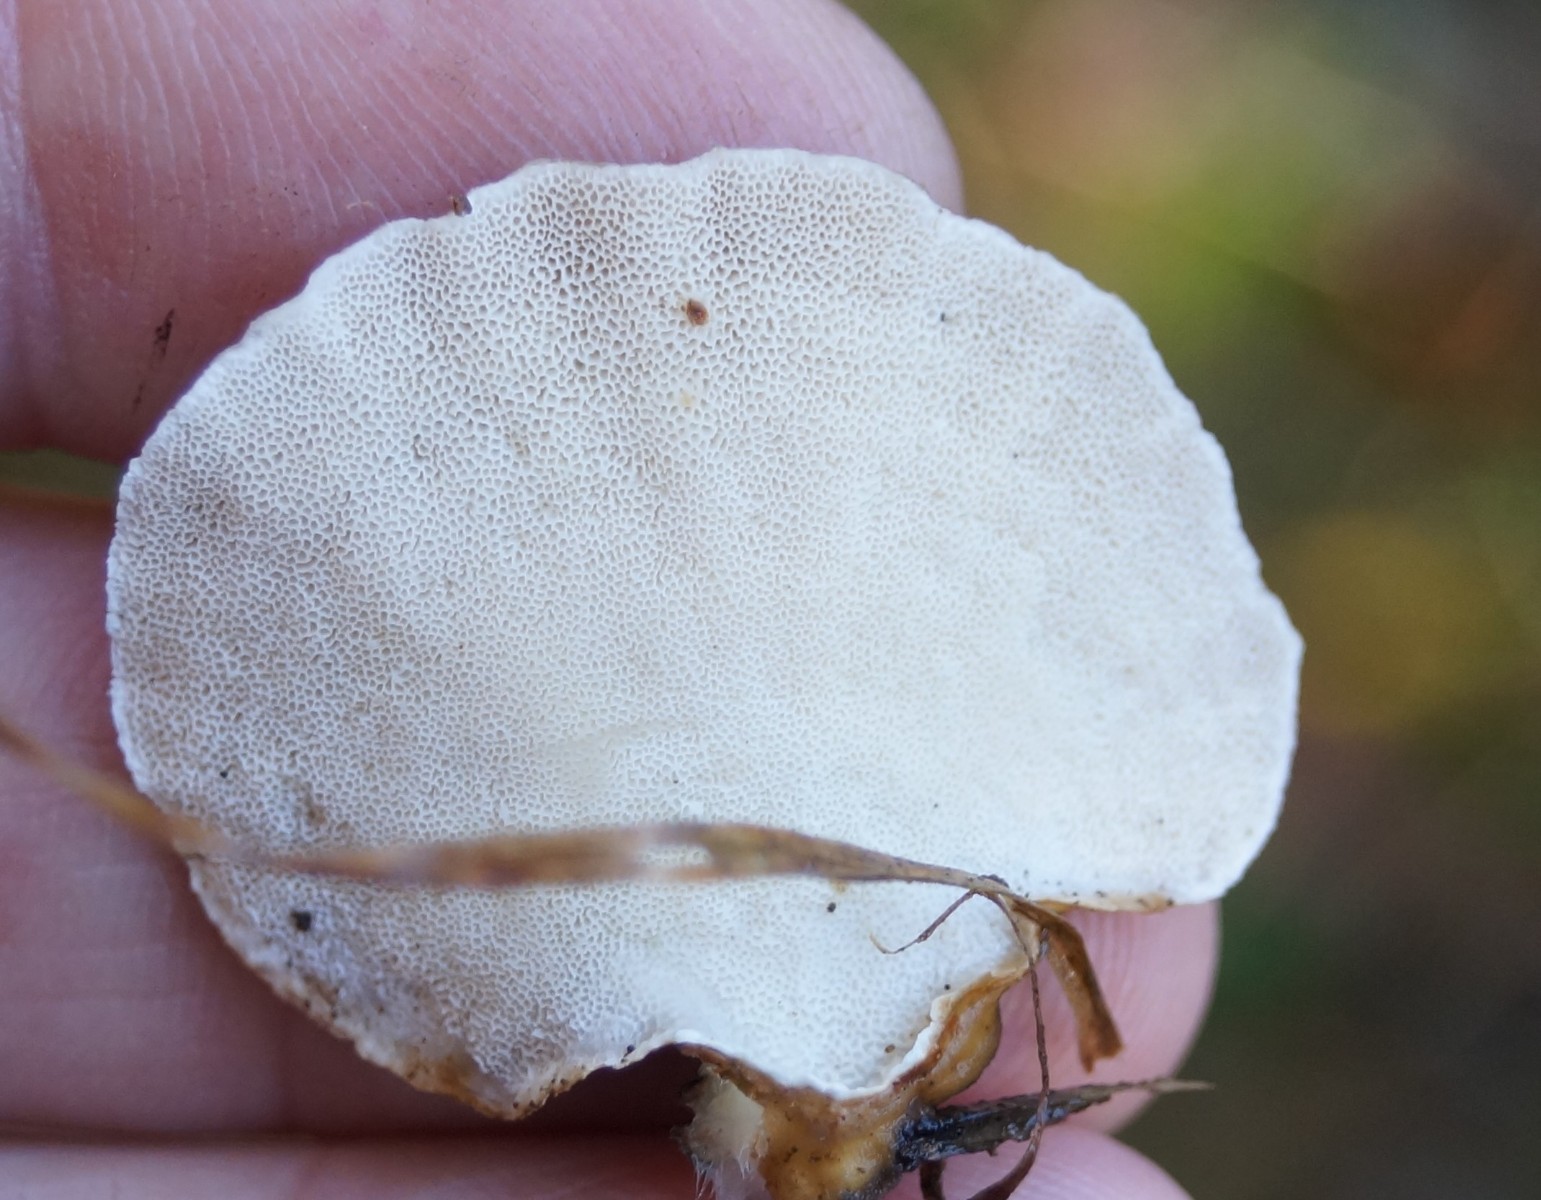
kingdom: Fungi
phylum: Basidiomycota
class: Agaricomycetes
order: Polyporales
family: Polyporaceae
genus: Trametes
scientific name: Trametes versicolor
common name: broget læderporesvamp
